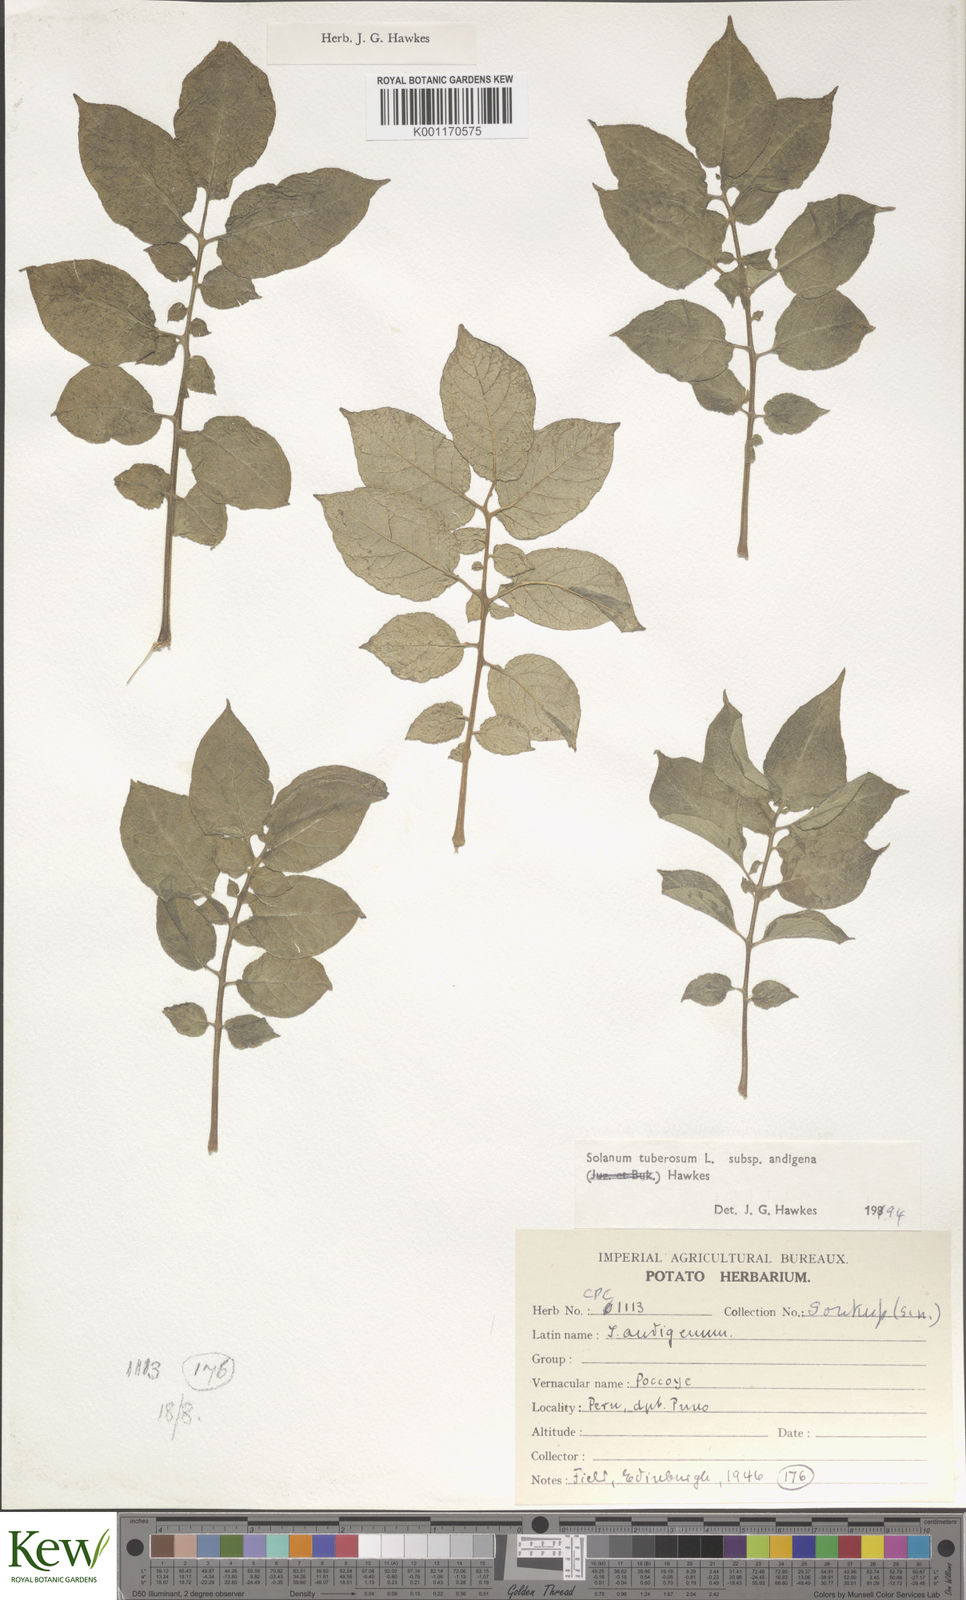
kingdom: Plantae
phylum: Tracheophyta
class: Magnoliopsida
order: Solanales
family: Solanaceae
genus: Solanum
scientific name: Solanum tuberosum
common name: Potato
